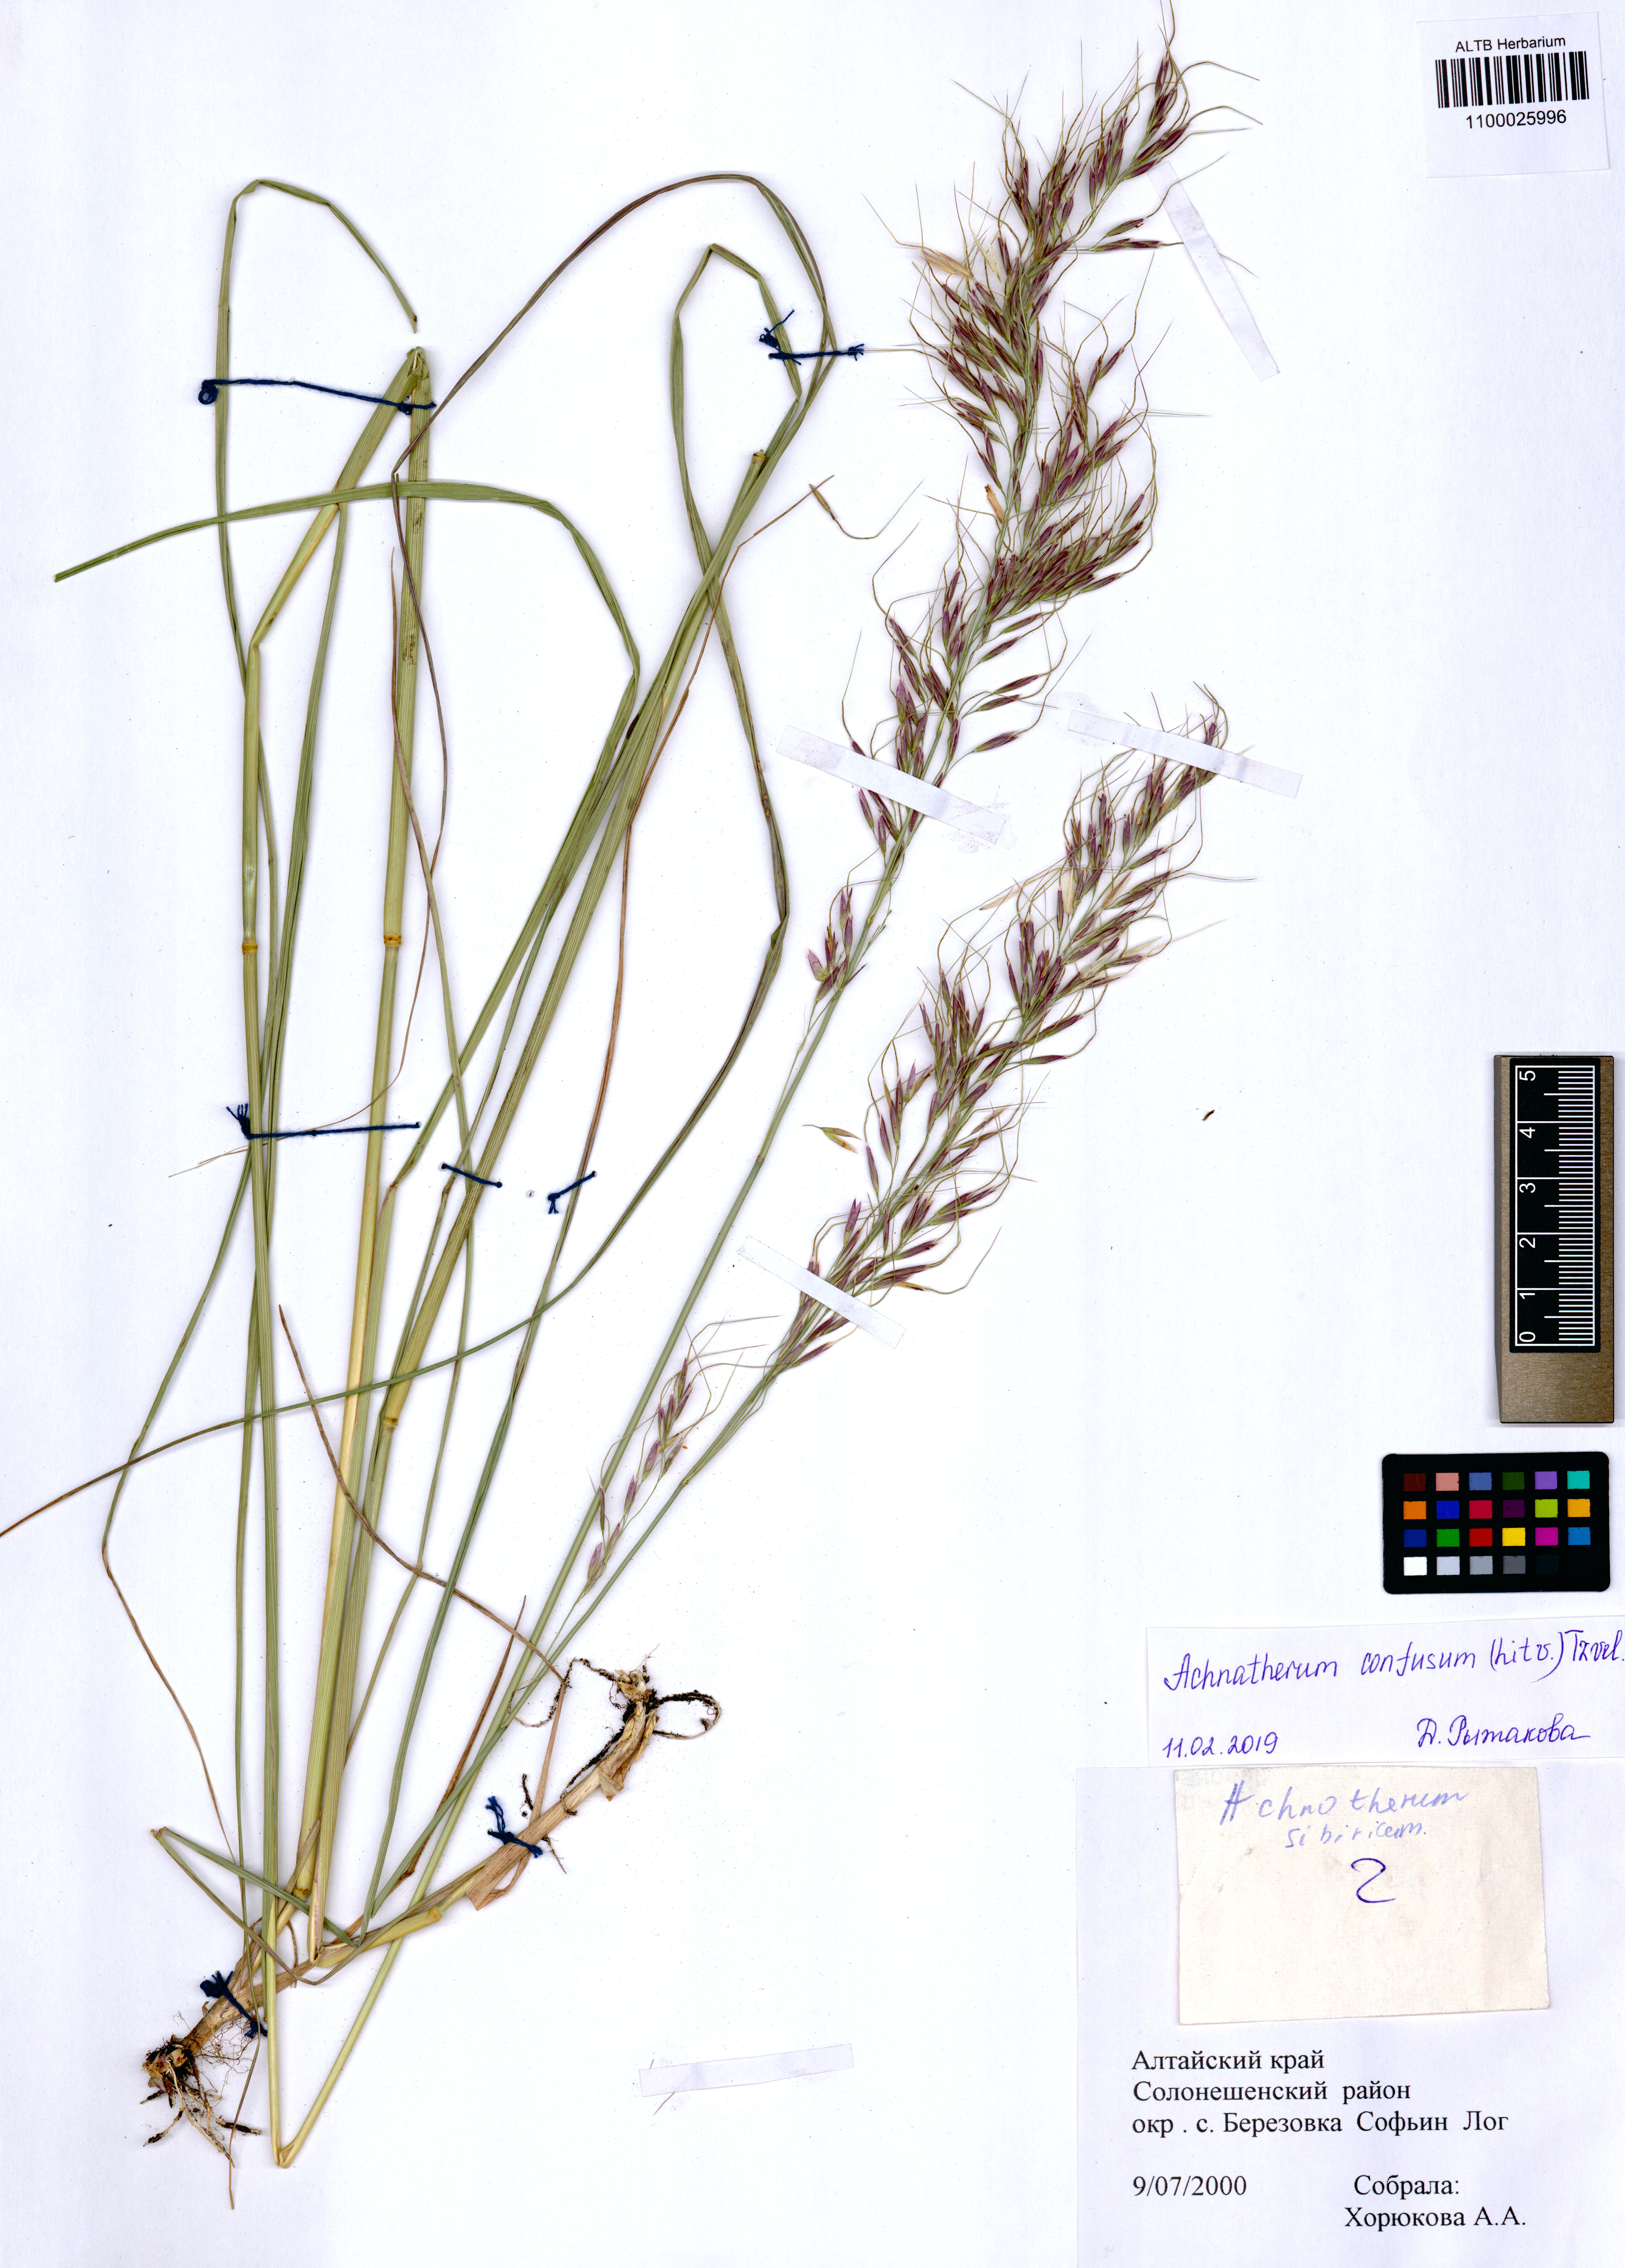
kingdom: Plantae
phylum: Tracheophyta
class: Liliopsida
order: Poales
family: Poaceae
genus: Achnatherum
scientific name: Achnatherum confusum
